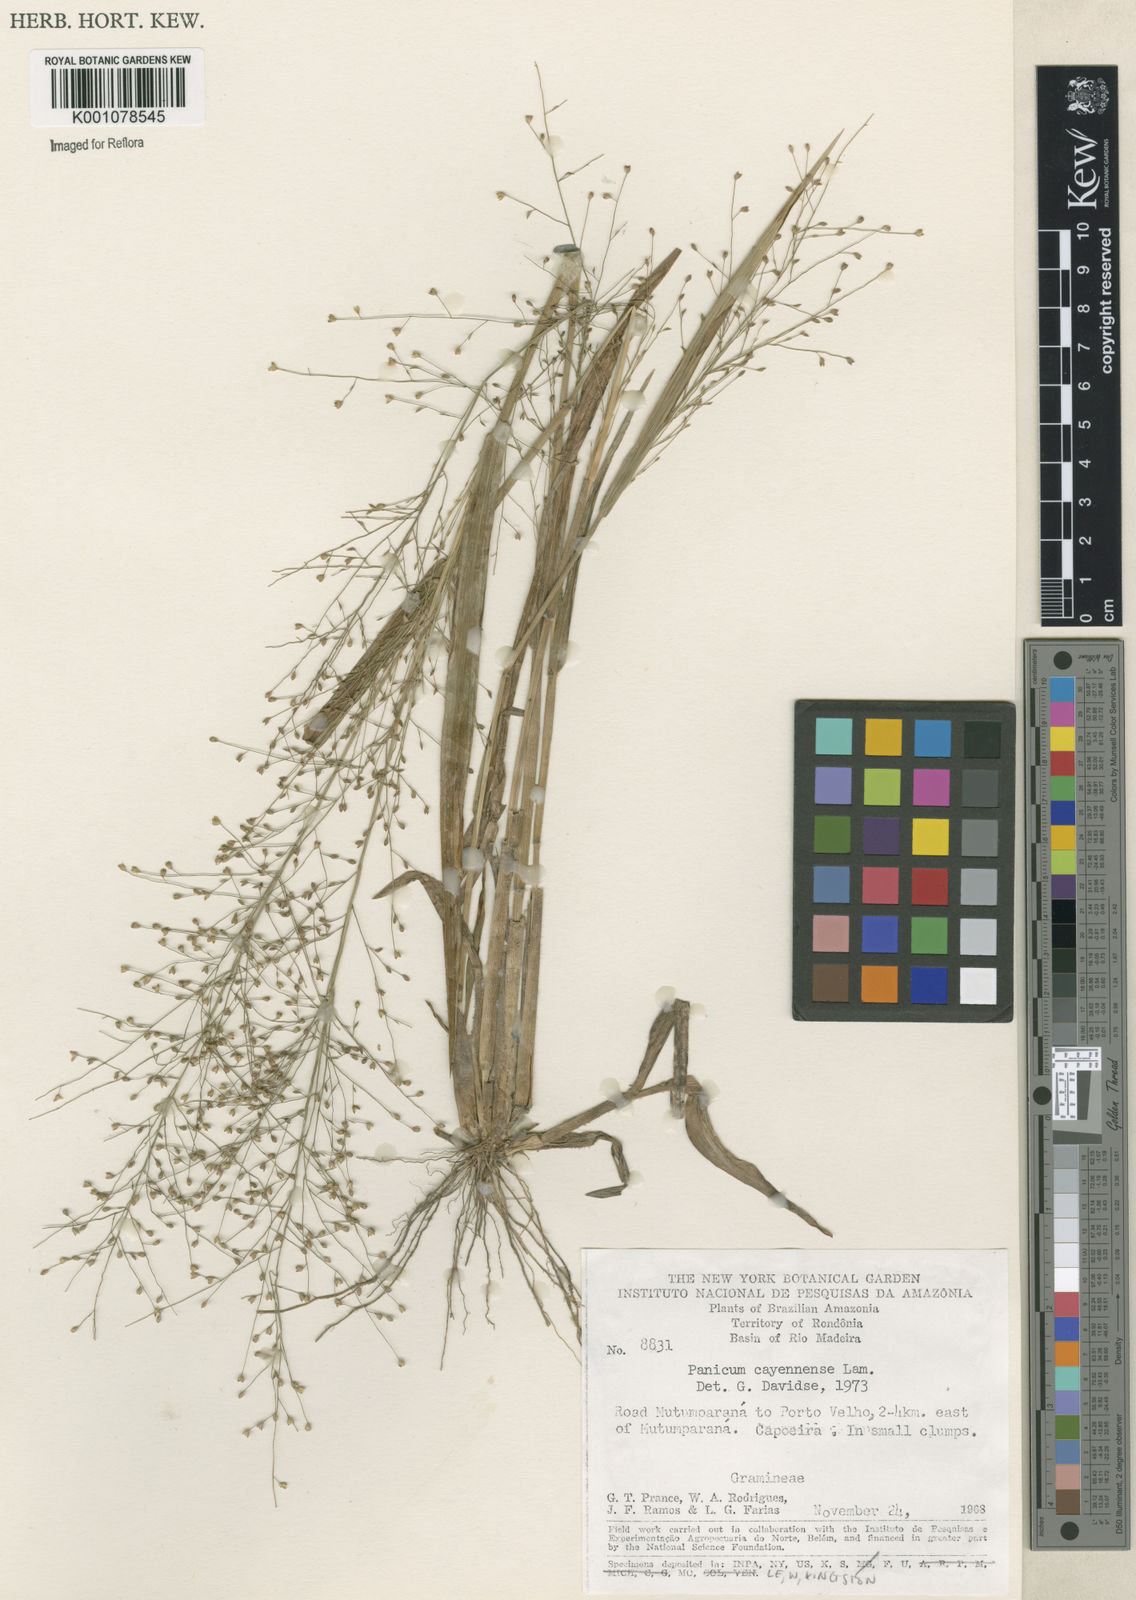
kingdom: Plantae
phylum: Tracheophyta
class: Liliopsida
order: Poales
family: Poaceae
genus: Panicum
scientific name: Panicum cayennense
